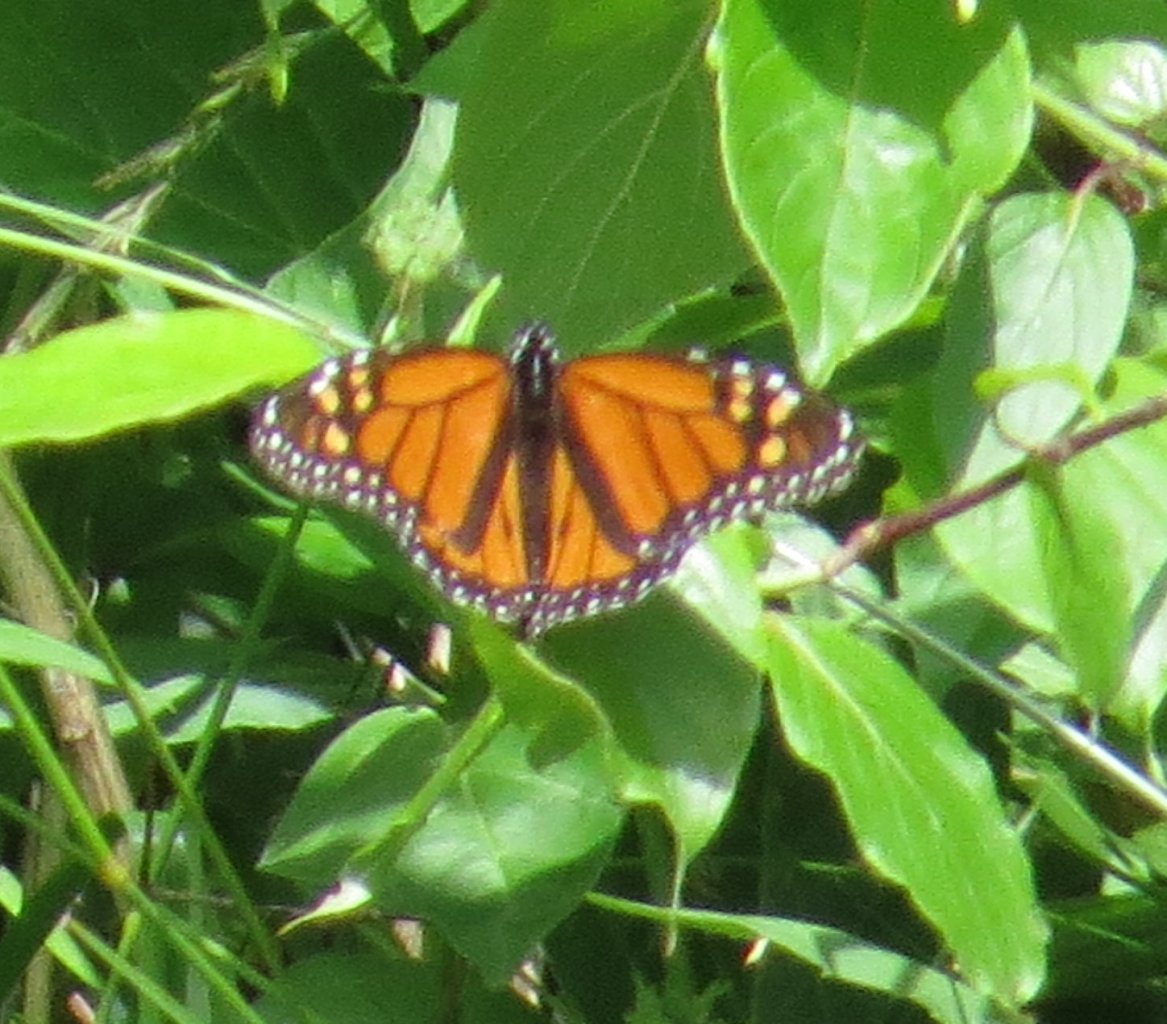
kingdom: Animalia
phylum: Arthropoda
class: Insecta
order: Lepidoptera
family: Nymphalidae
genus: Danaus
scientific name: Danaus plexippus
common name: Monarch
